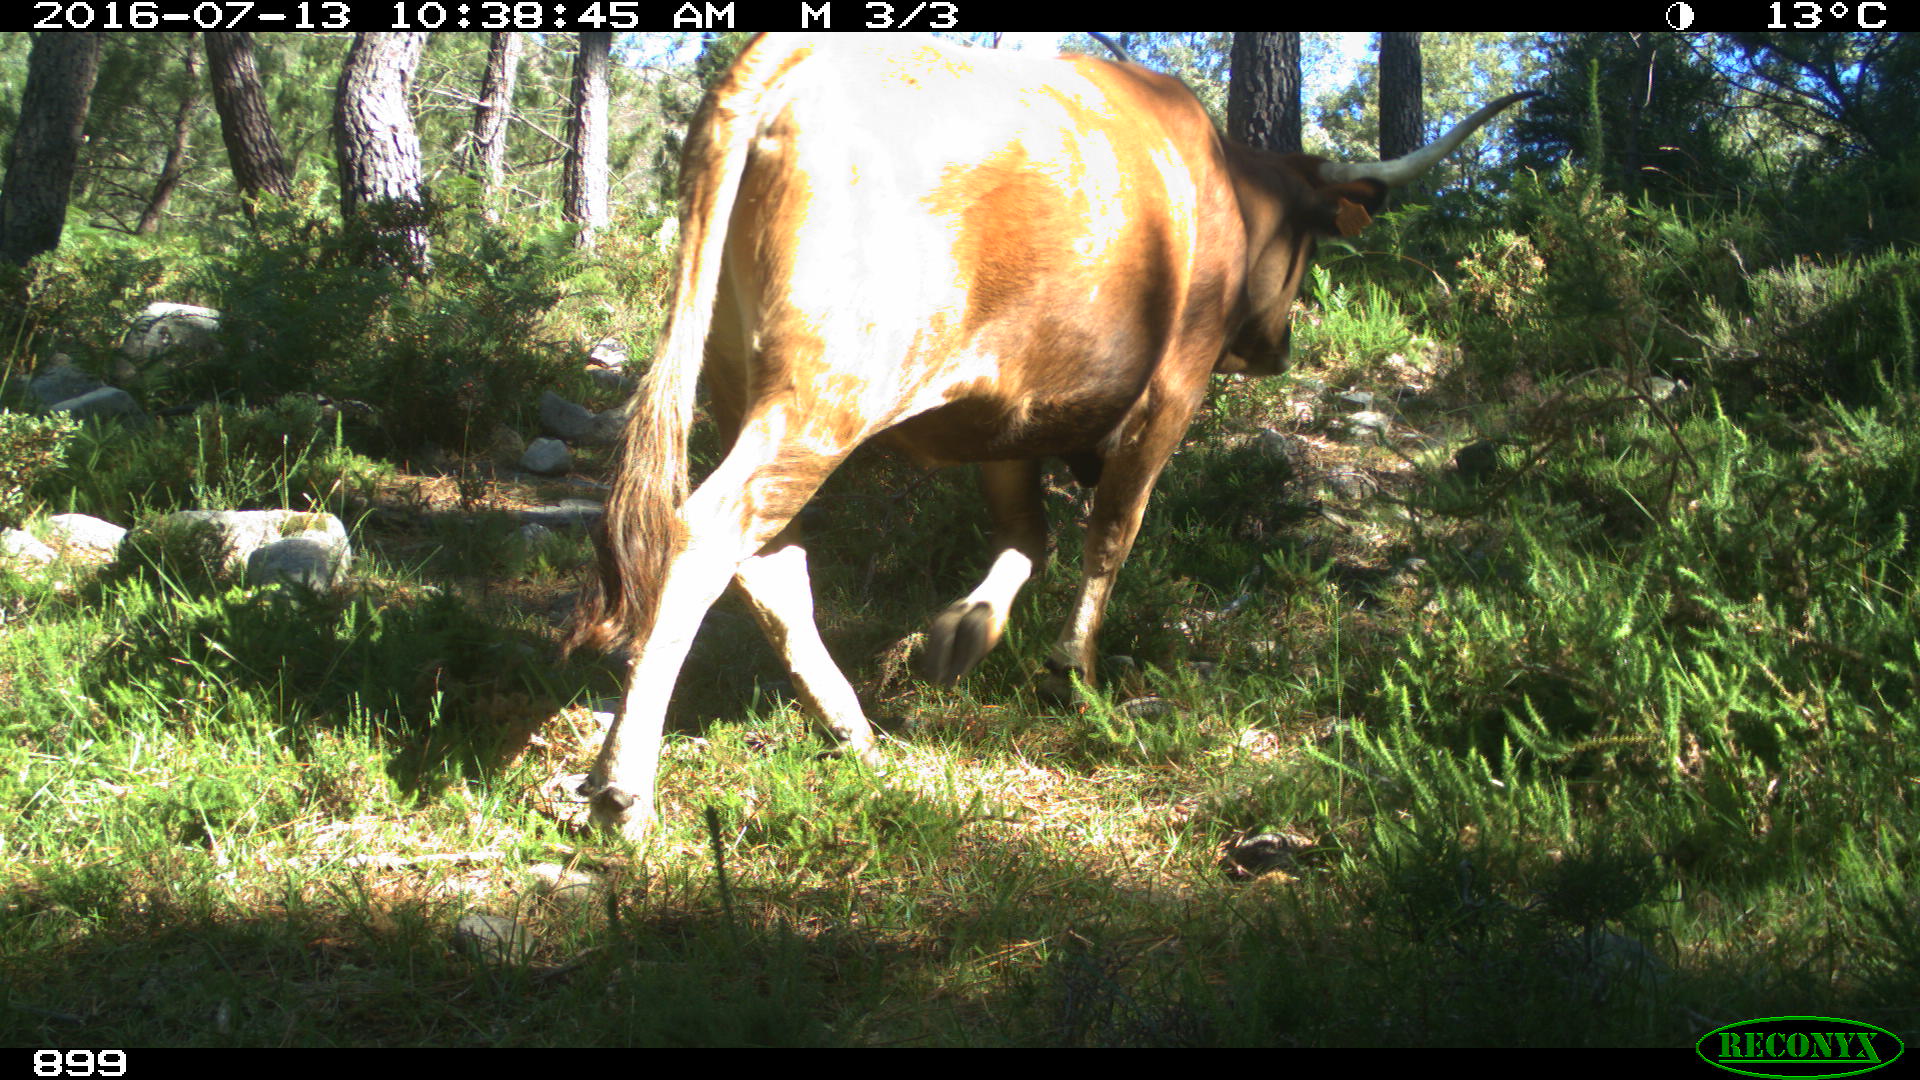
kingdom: Animalia
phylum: Chordata
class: Mammalia
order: Artiodactyla
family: Bovidae
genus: Bos
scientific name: Bos taurus
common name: Domesticated cattle
